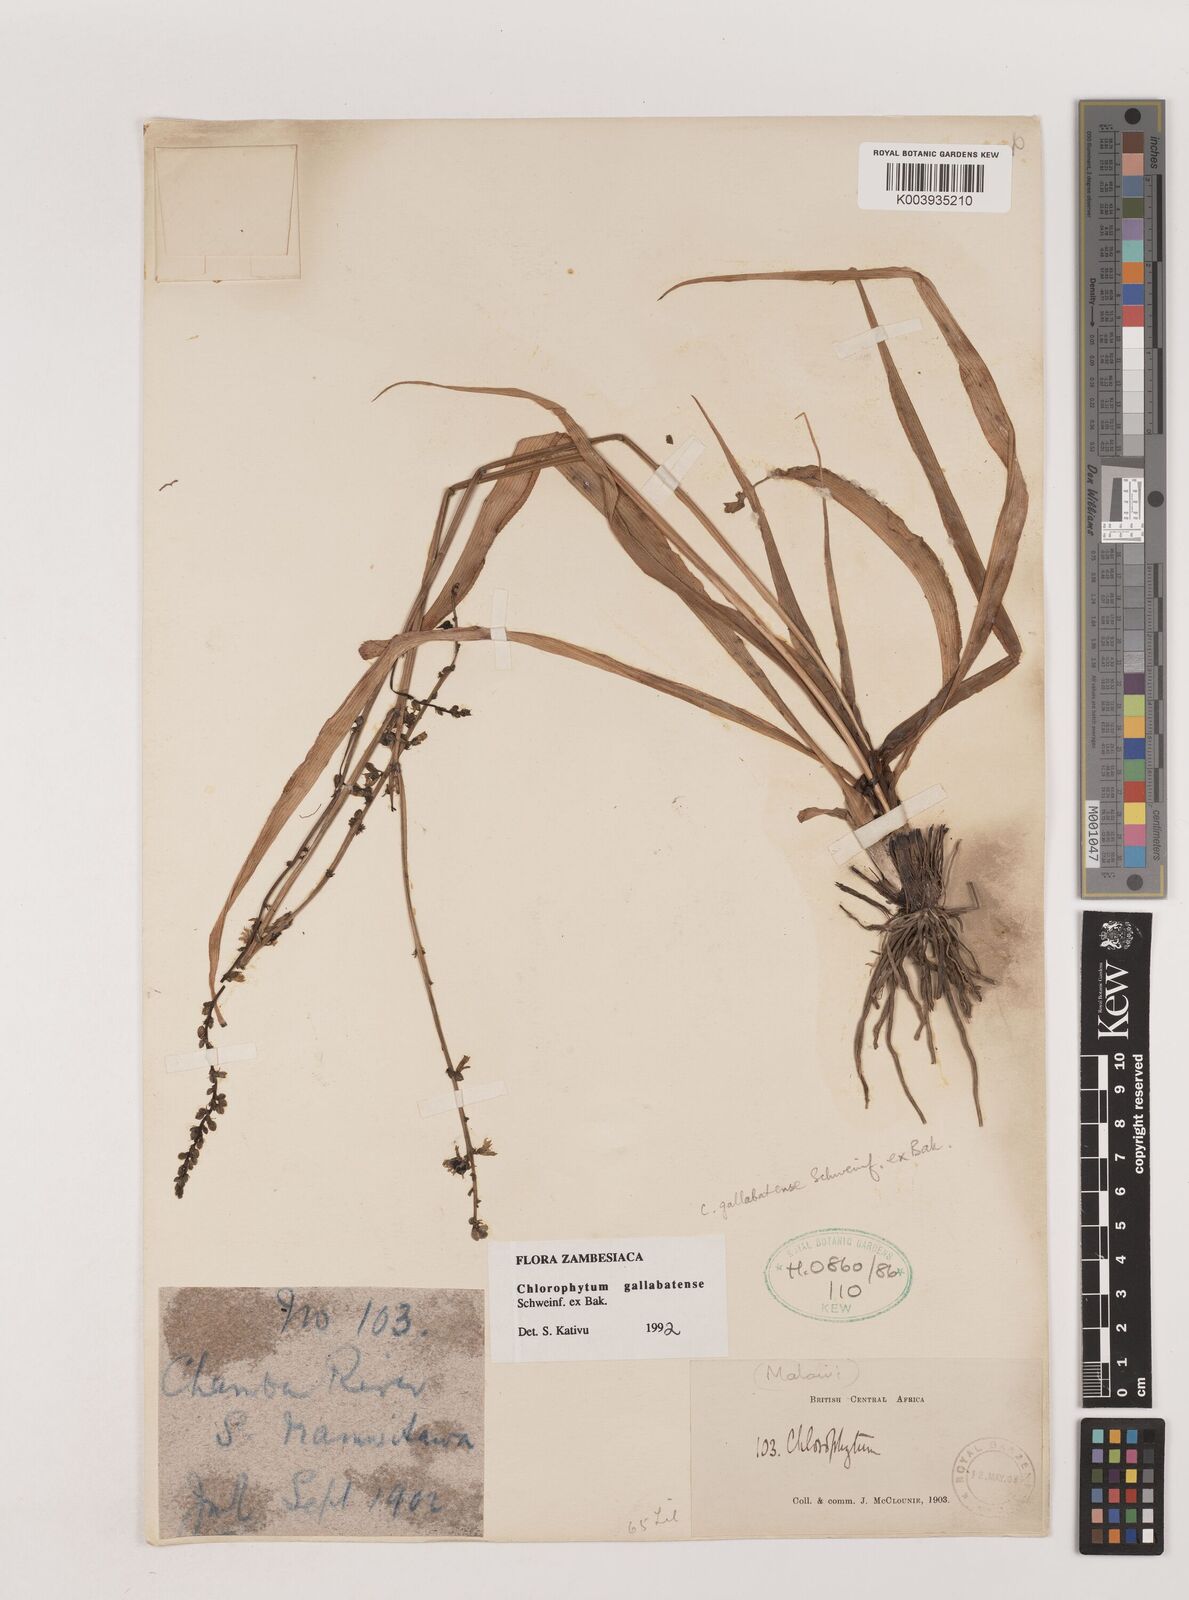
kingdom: Plantae
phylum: Tracheophyta
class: Liliopsida
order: Asparagales
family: Asparagaceae
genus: Chlorophytum
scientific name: Chlorophytum gallabatense
